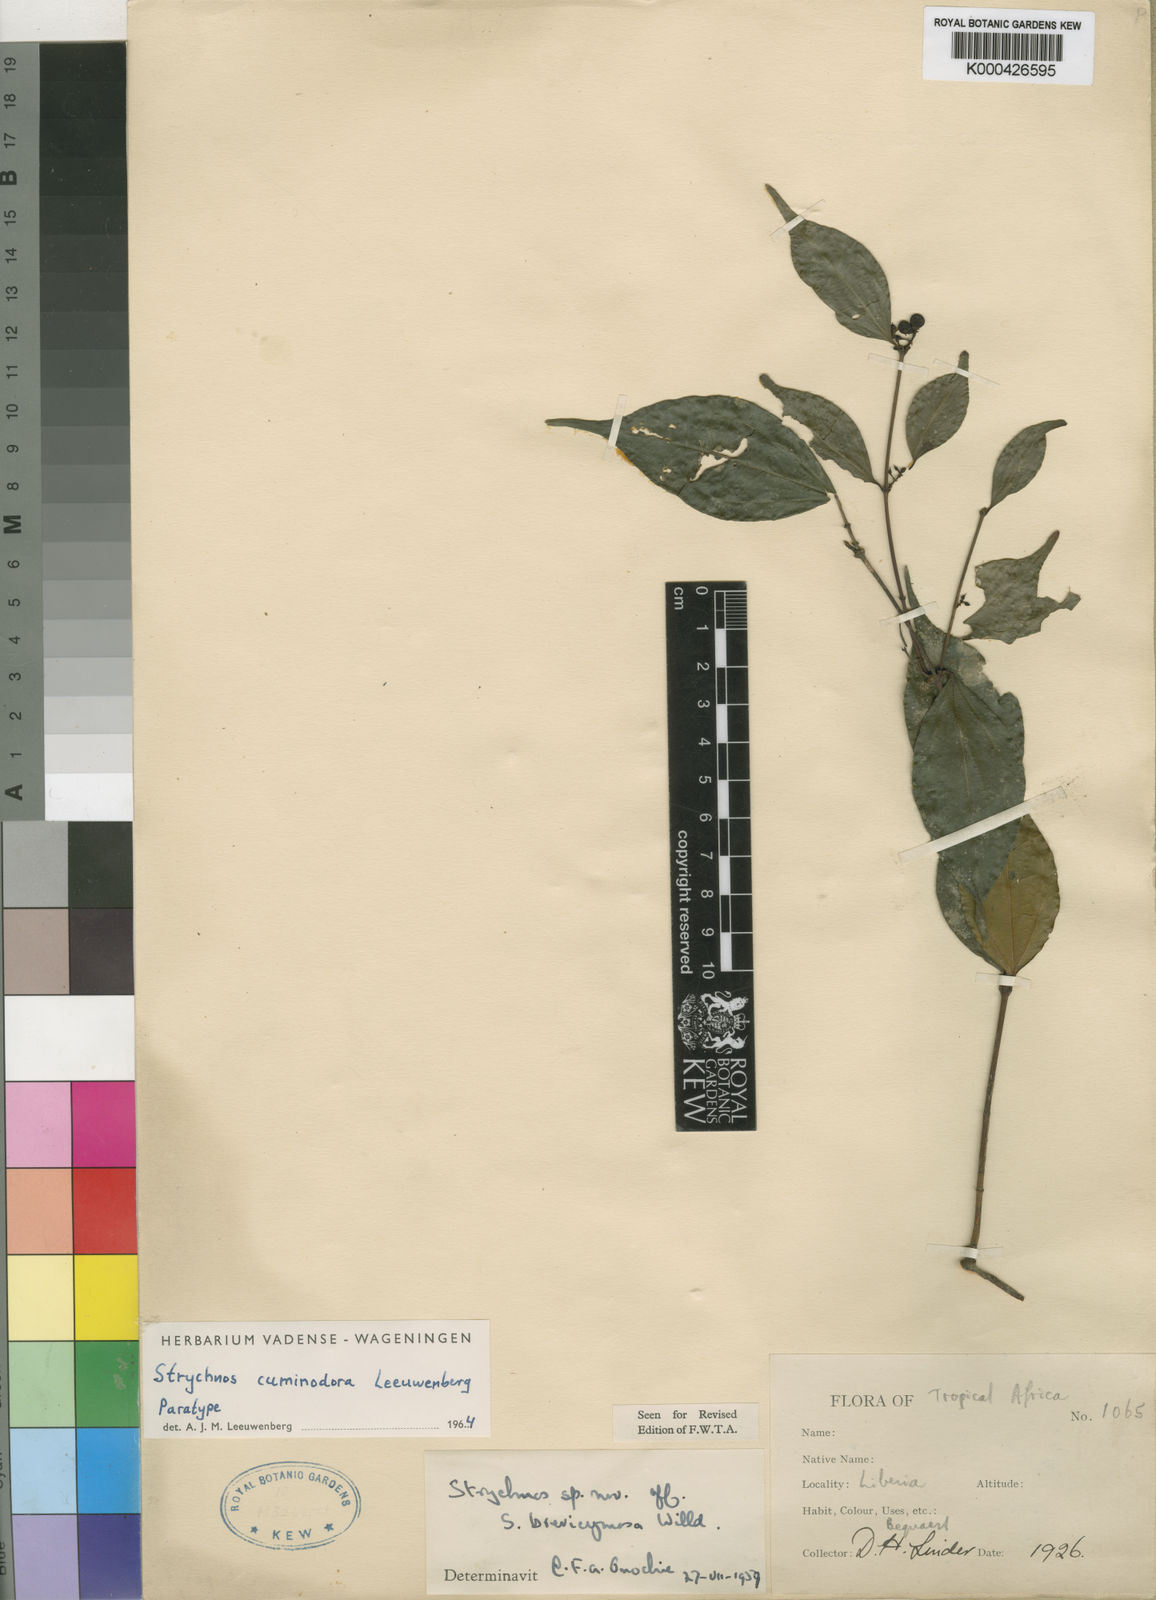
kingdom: Plantae
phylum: Tracheophyta
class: Magnoliopsida
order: Gentianales
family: Loganiaceae
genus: Strychnos
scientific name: Strychnos cuminodora
